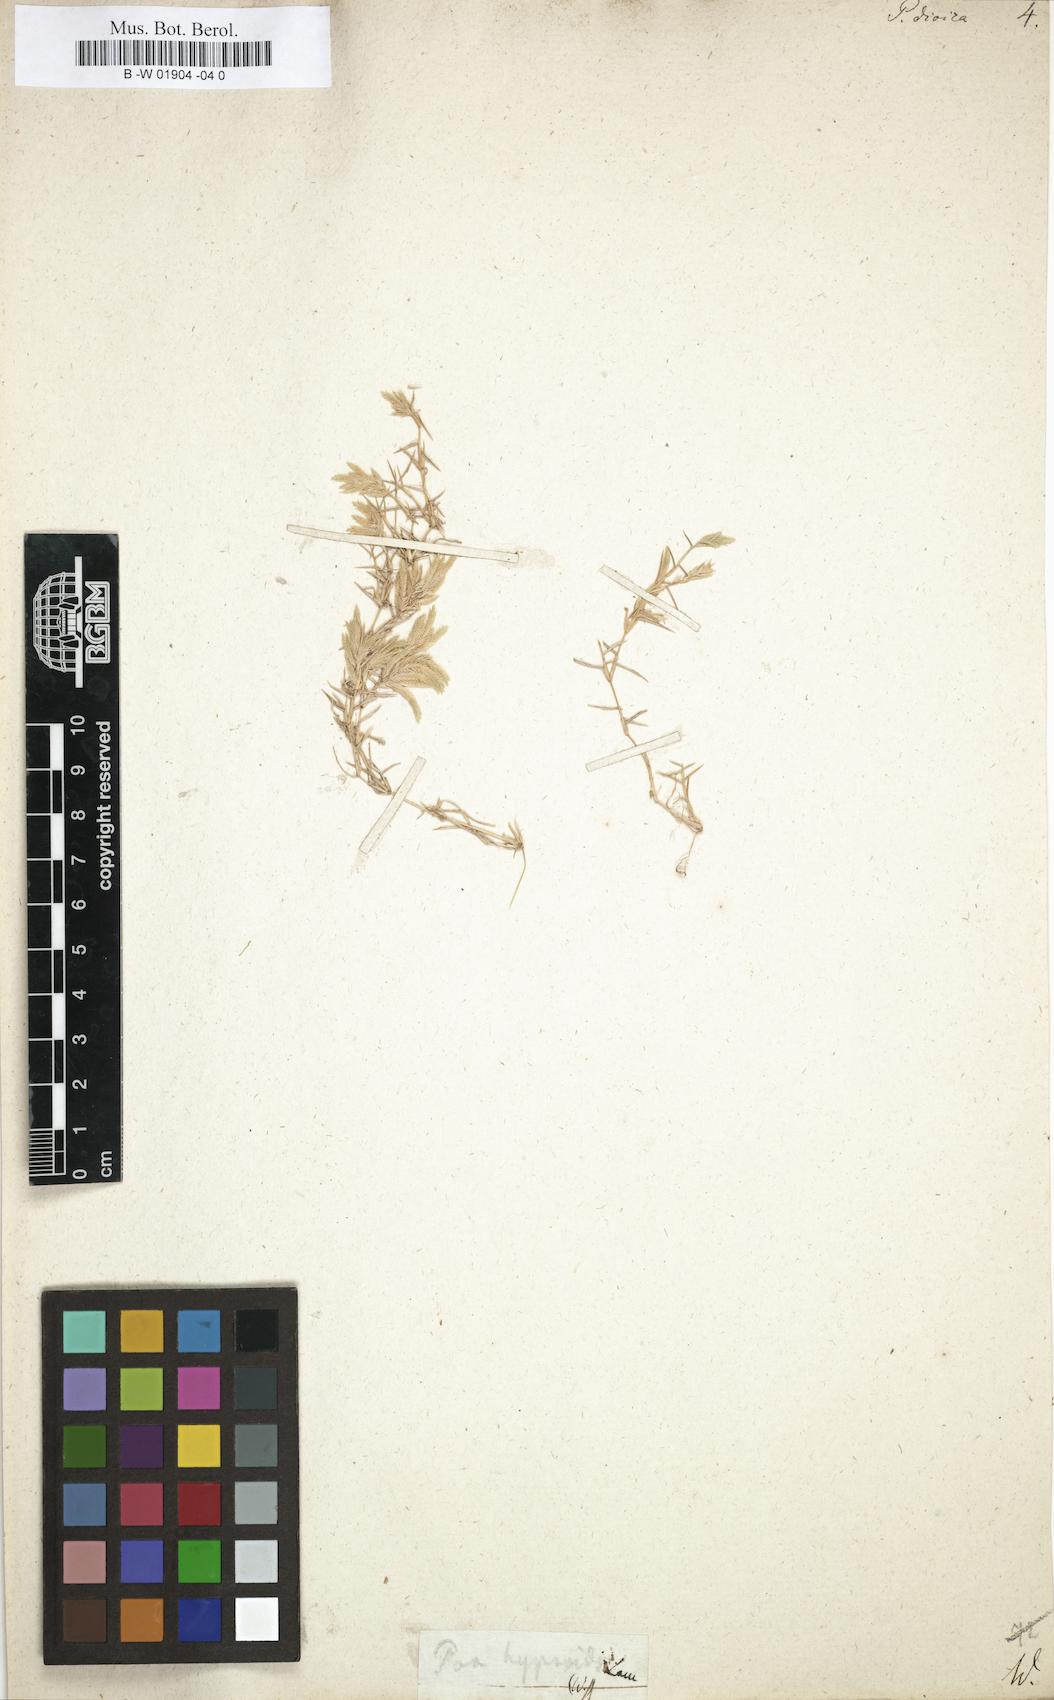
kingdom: Plantae
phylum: Tracheophyta
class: Liliopsida
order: Poales
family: Poaceae
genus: Eragrostis
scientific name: Eragrostis reptans
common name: Creeping love grass
